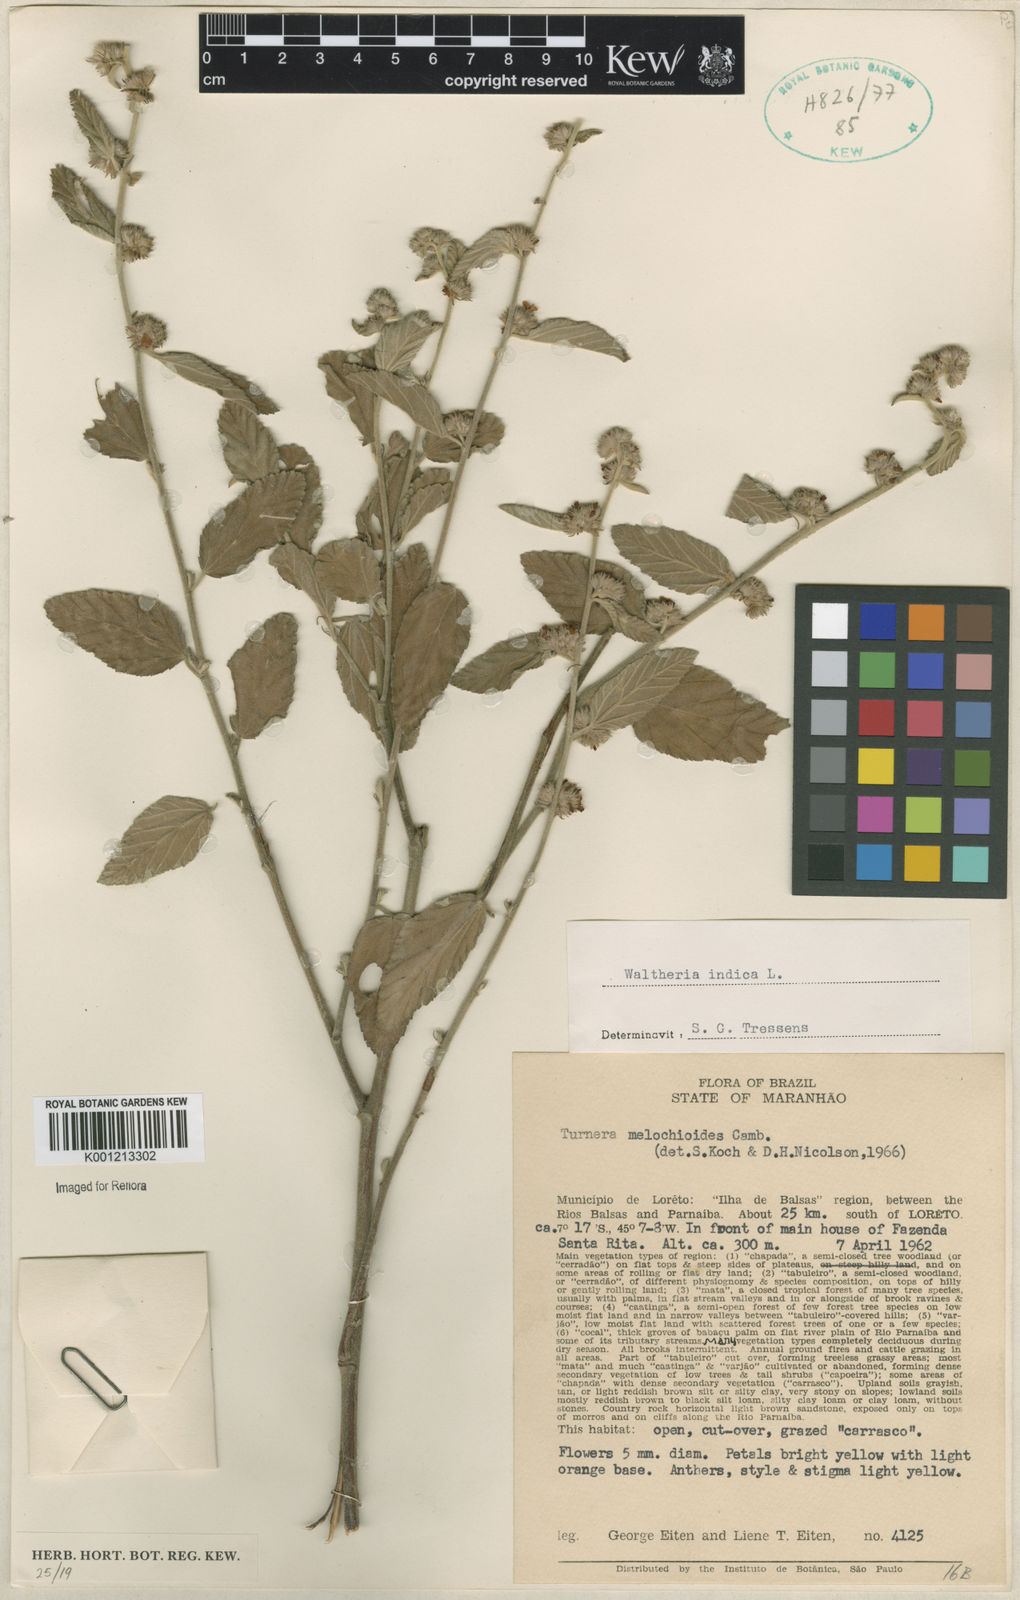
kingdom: Plantae
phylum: Tracheophyta
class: Magnoliopsida
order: Malvales
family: Malvaceae
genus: Waltheria
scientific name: Waltheria indica
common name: Leather-coat
